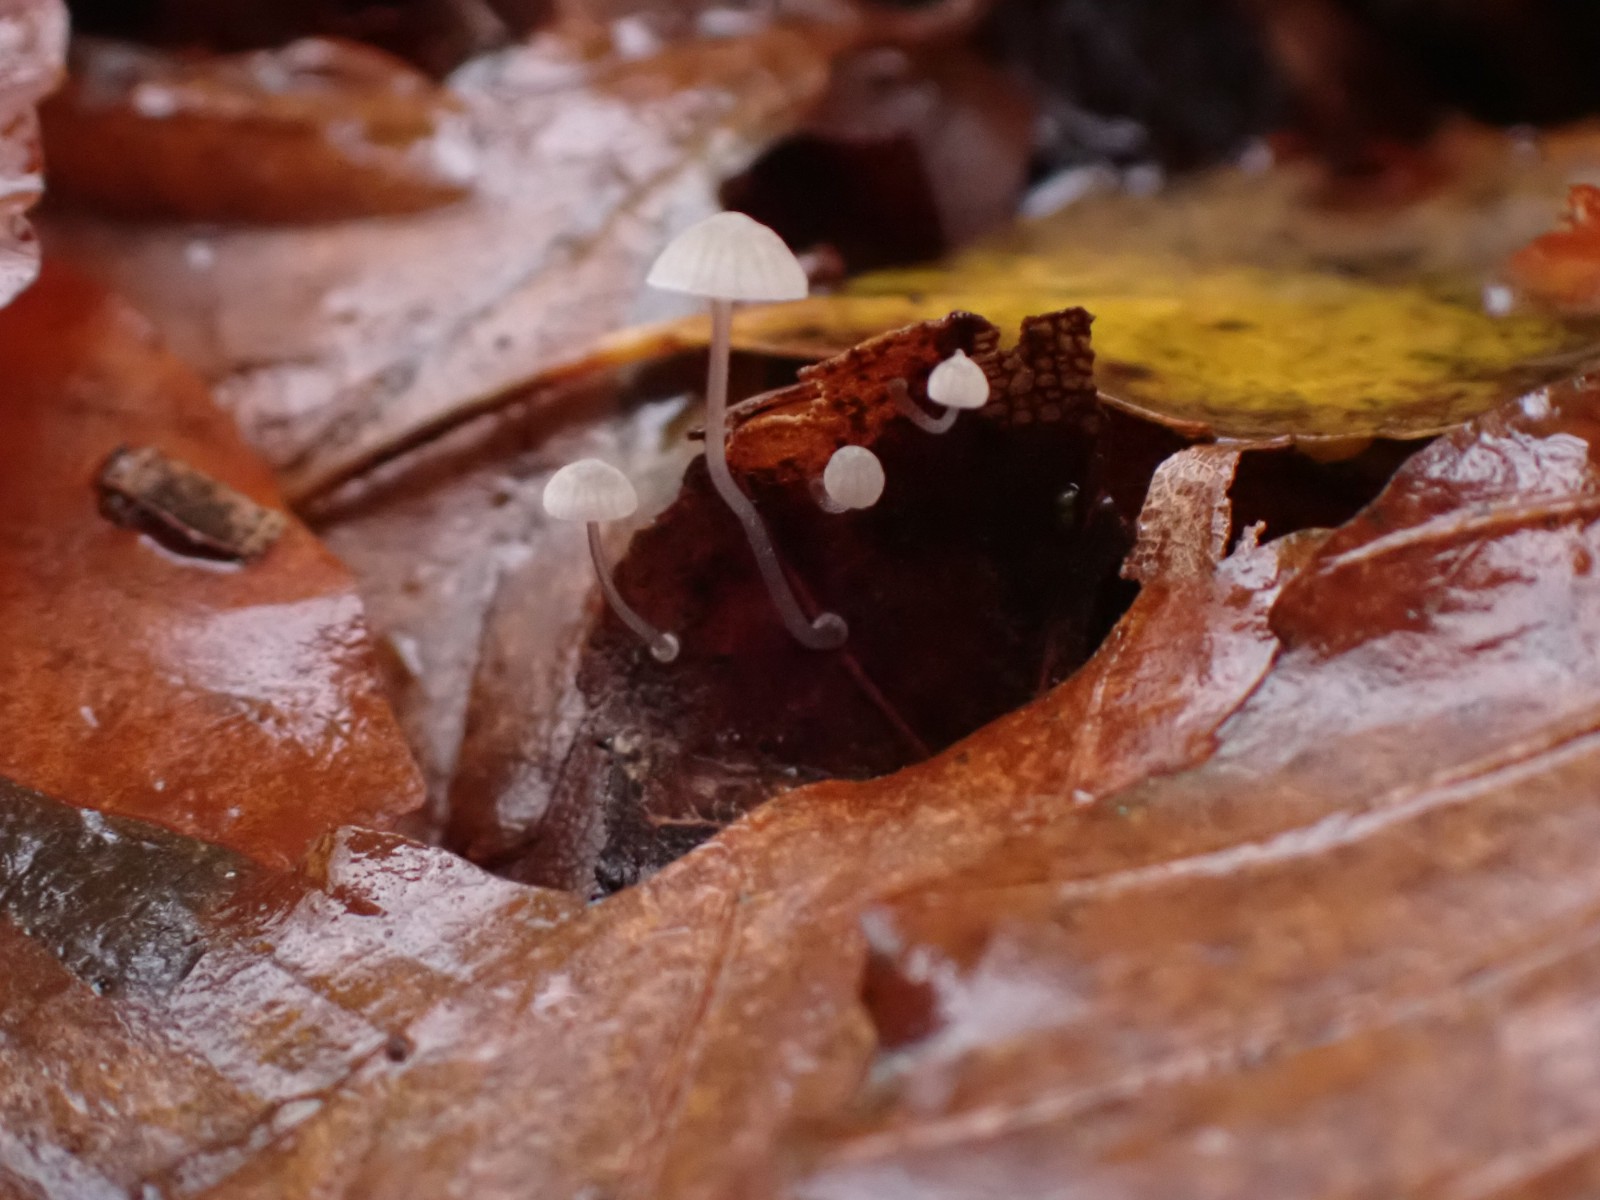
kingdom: Fungi
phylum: Basidiomycota
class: Agaricomycetes
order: Agaricales
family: Mycenaceae
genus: Mycena
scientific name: Mycena
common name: huesvamp
